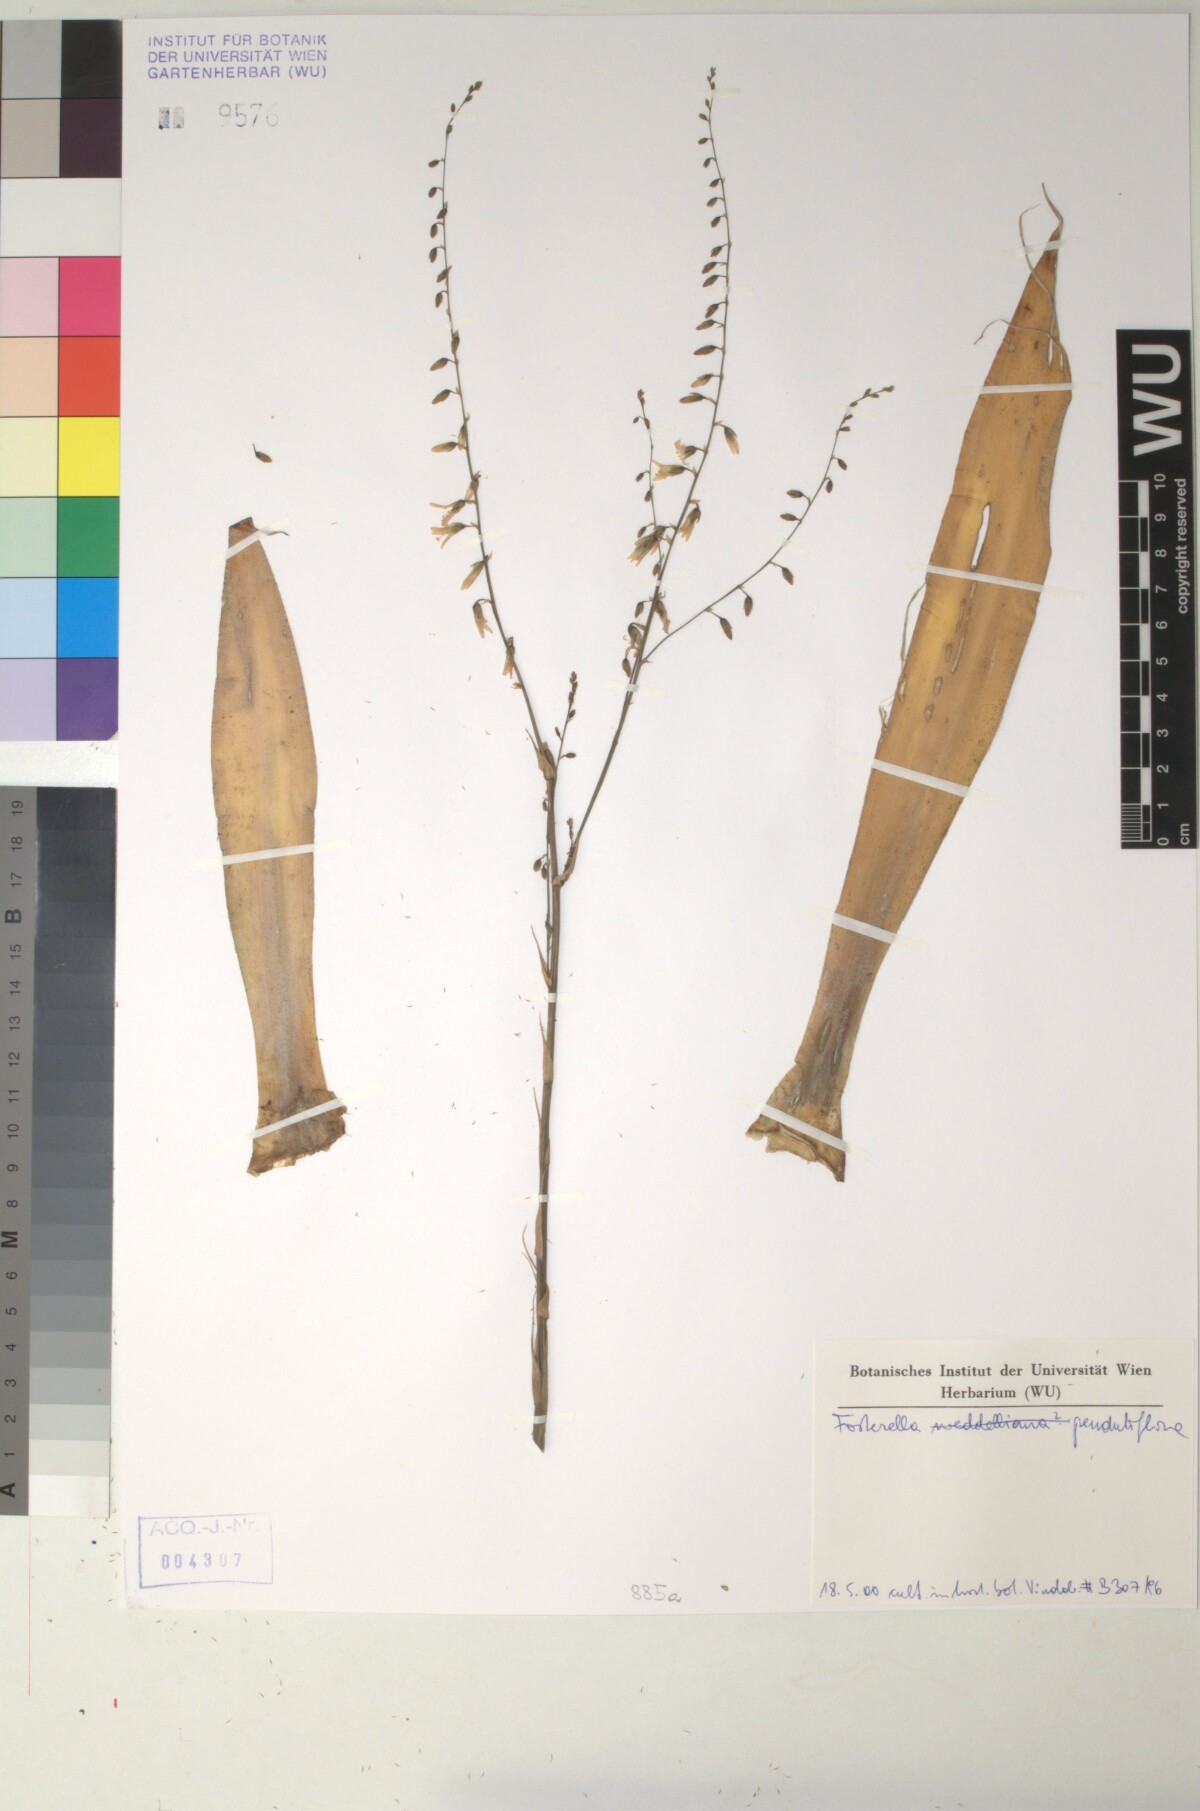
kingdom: Plantae
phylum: Tracheophyta
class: Liliopsida
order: Poales
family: Bromeliaceae
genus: Fosterella
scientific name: Fosterella penduliflora
